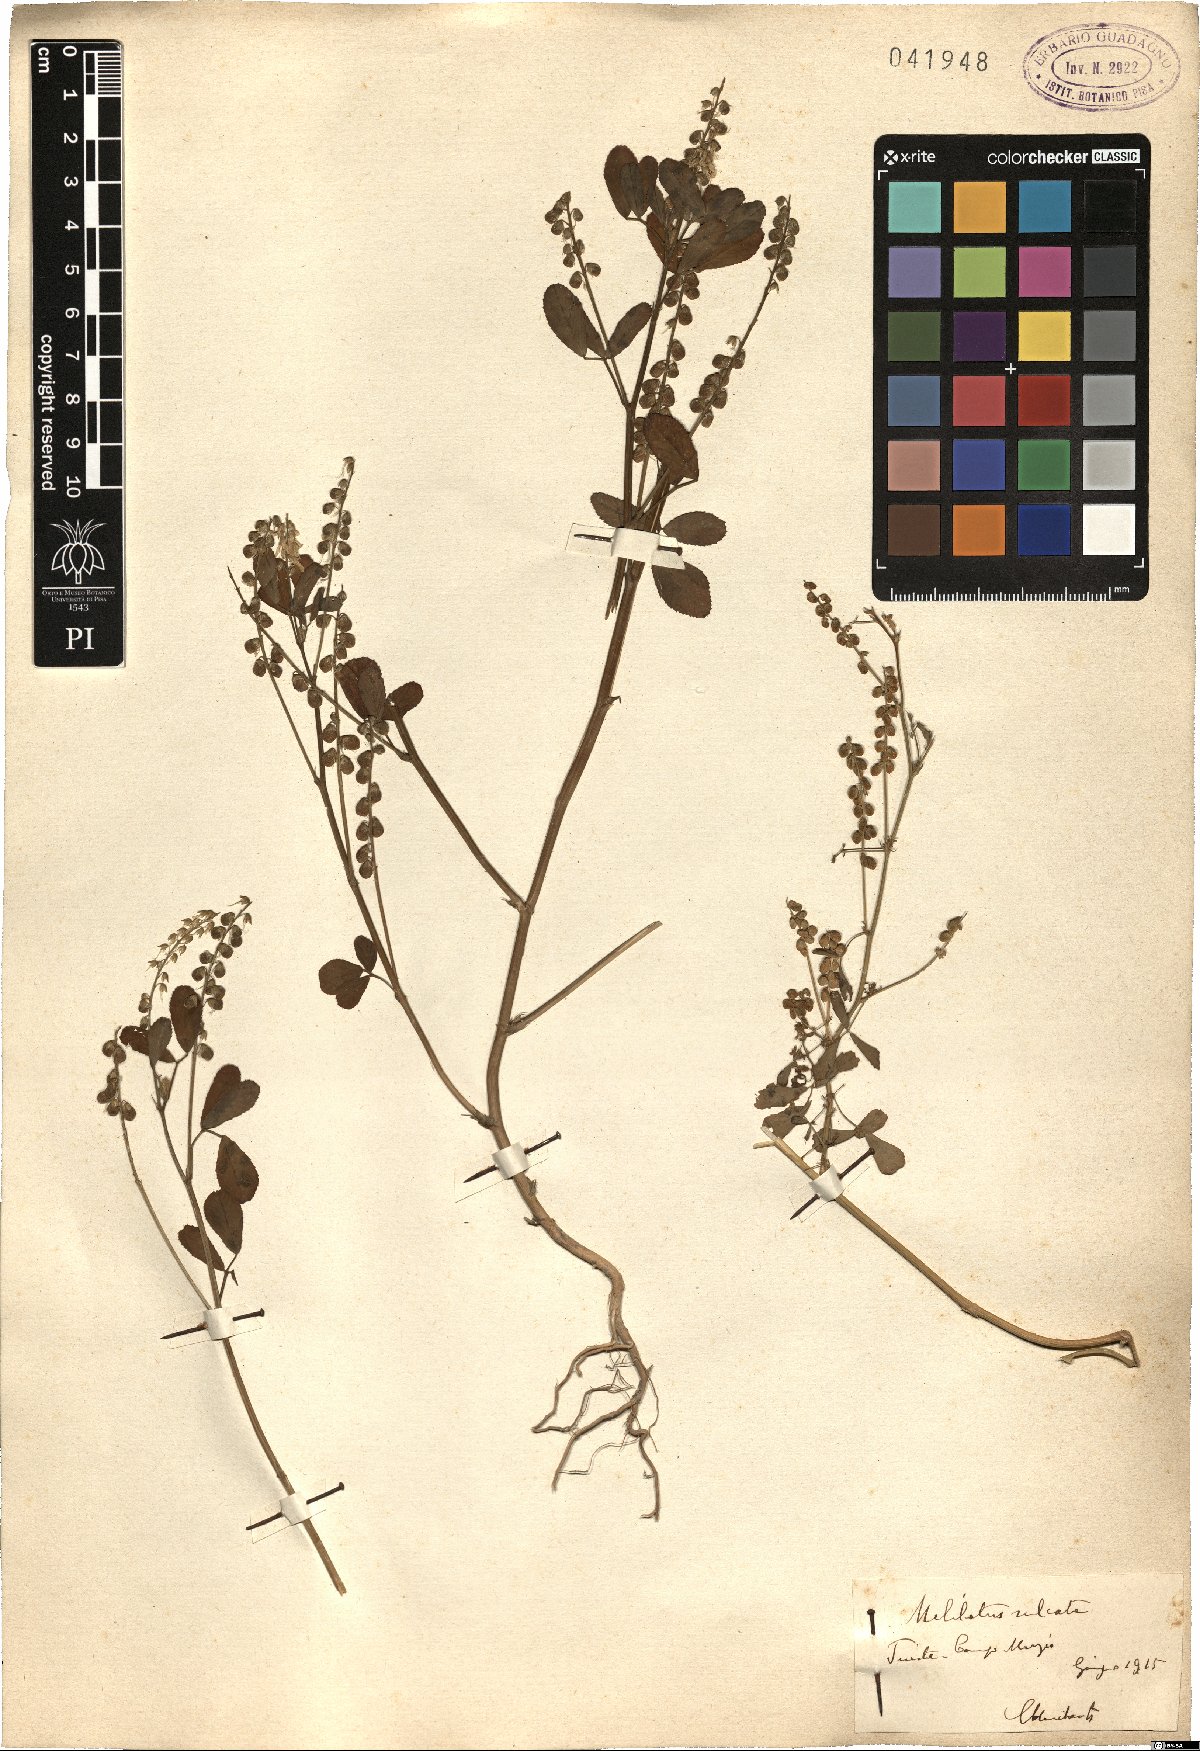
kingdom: Plantae
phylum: Tracheophyta
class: Magnoliopsida
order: Fabales
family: Fabaceae
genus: Melilotus
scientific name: Melilotus sulcatus
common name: Furrowed melilot
